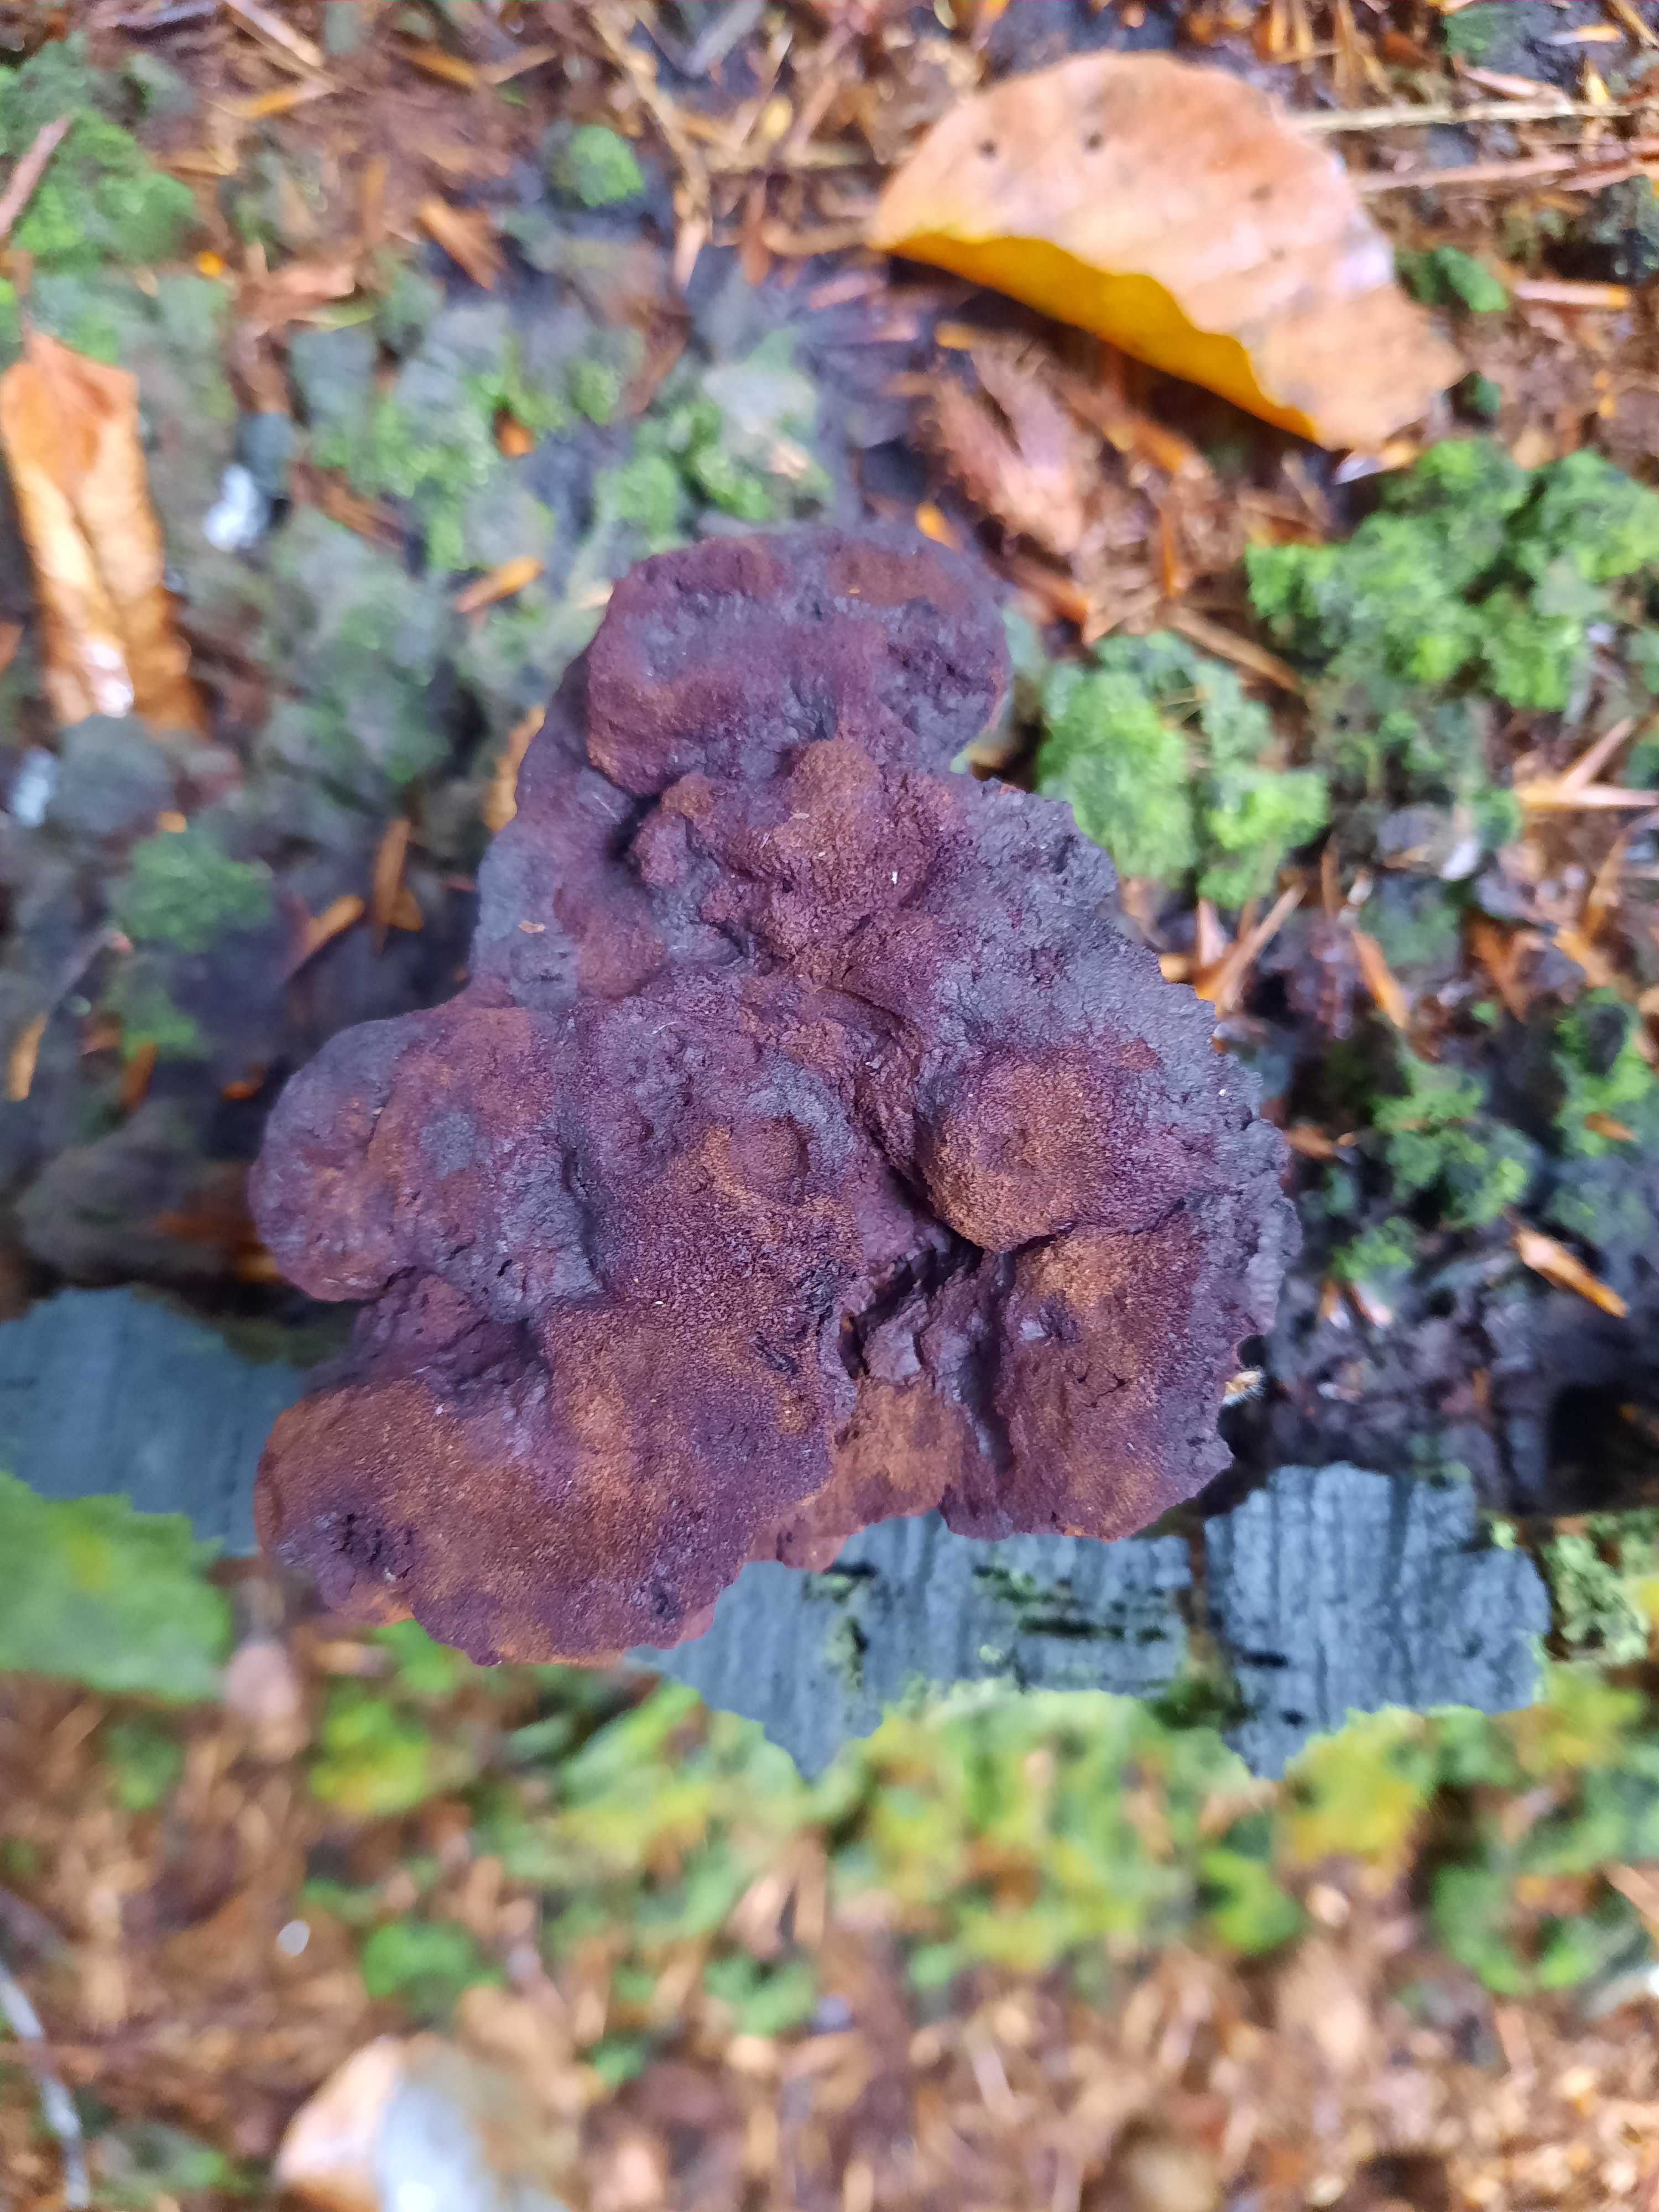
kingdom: Fungi
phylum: Basidiomycota
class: Agaricomycetes
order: Polyporales
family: Laetiporaceae
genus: Phaeolus
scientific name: Phaeolus schweinitzii
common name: brunporesvamp
